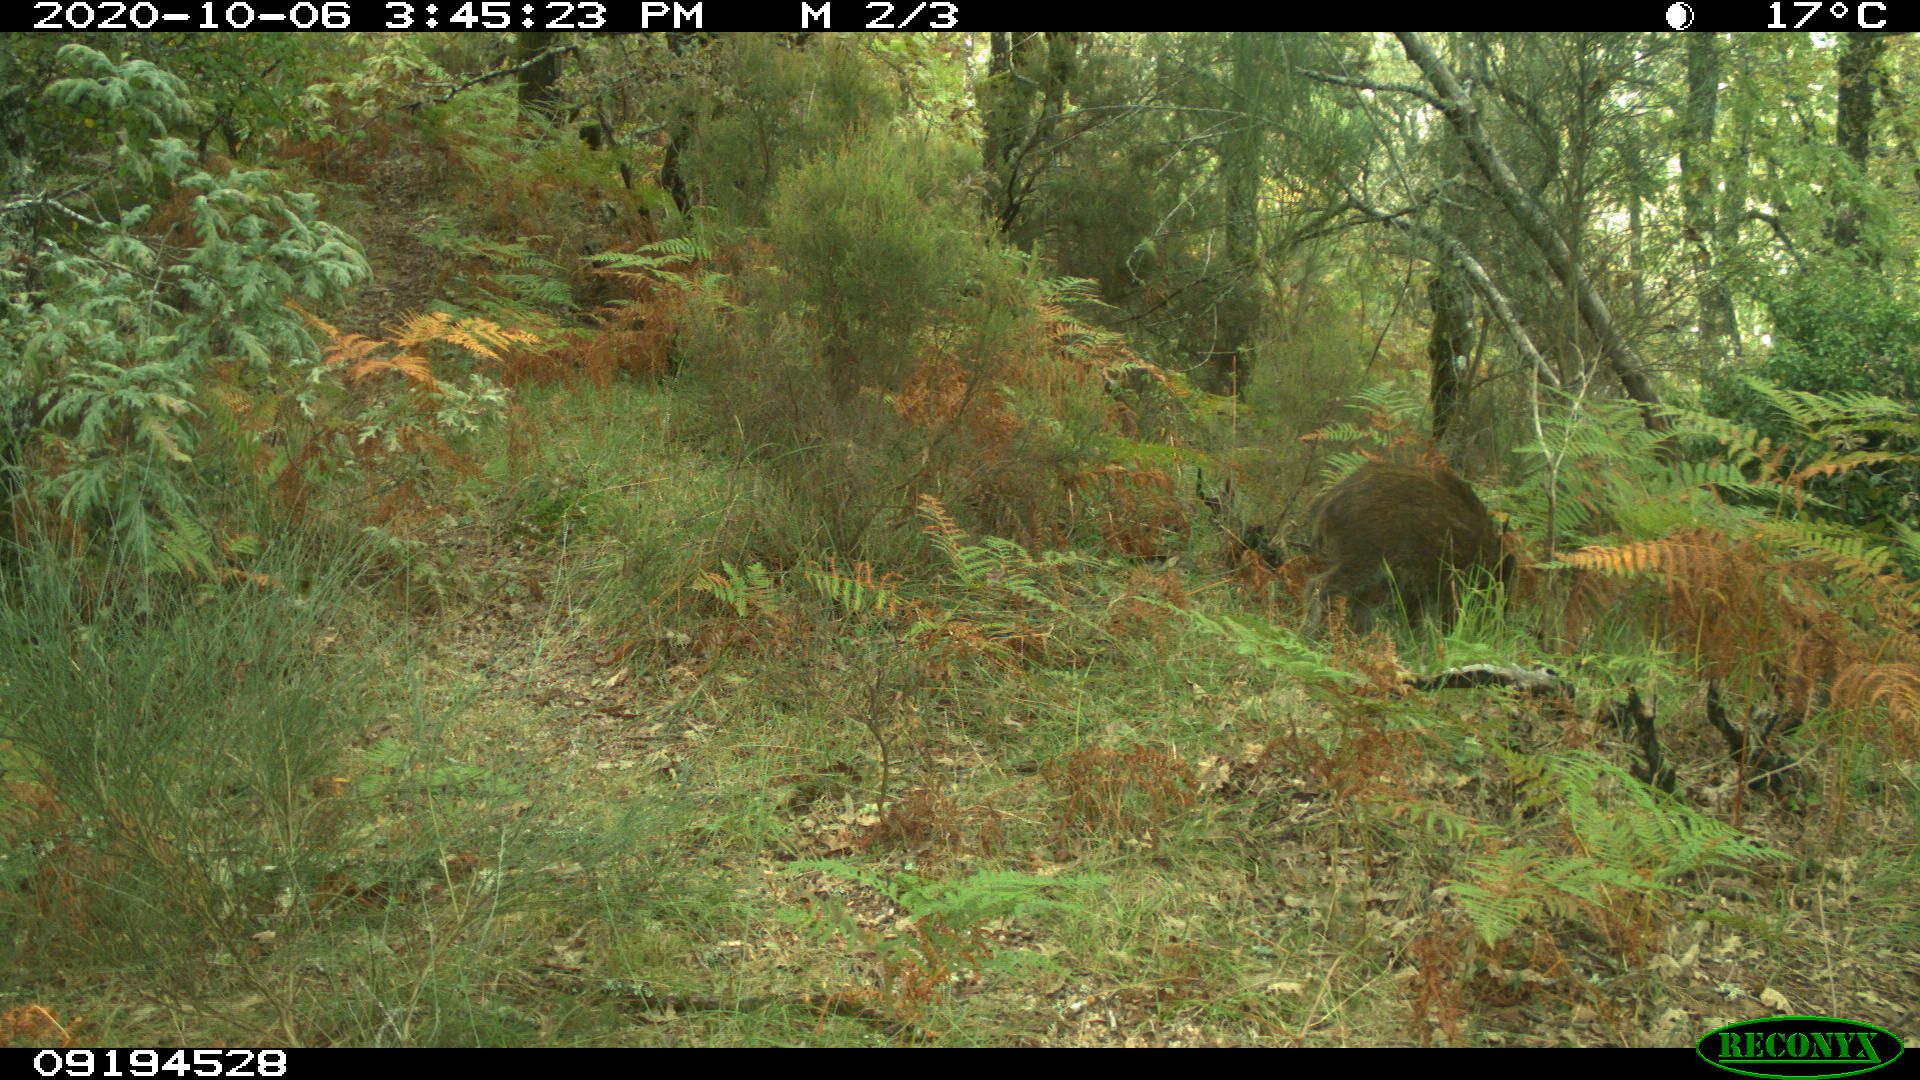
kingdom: Animalia
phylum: Chordata
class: Mammalia
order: Artiodactyla
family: Suidae
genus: Sus
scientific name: Sus scrofa
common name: Wild boar
